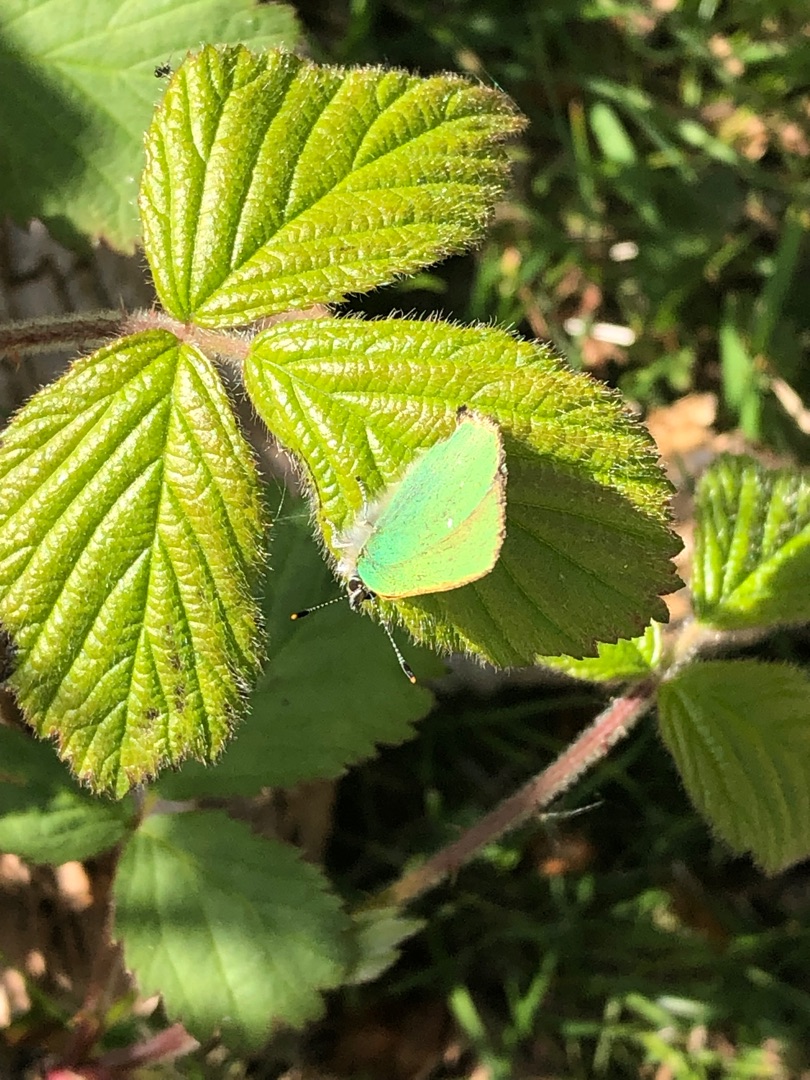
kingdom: Animalia
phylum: Arthropoda
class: Insecta
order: Lepidoptera
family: Lycaenidae
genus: Callophrys
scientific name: Callophrys rubi
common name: Grøn busksommerfugl
